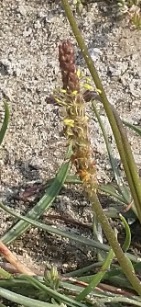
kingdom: Plantae
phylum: Tracheophyta
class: Magnoliopsida
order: Lamiales
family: Plantaginaceae
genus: Plantago
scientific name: Plantago maritima
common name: Strand-vejbred
